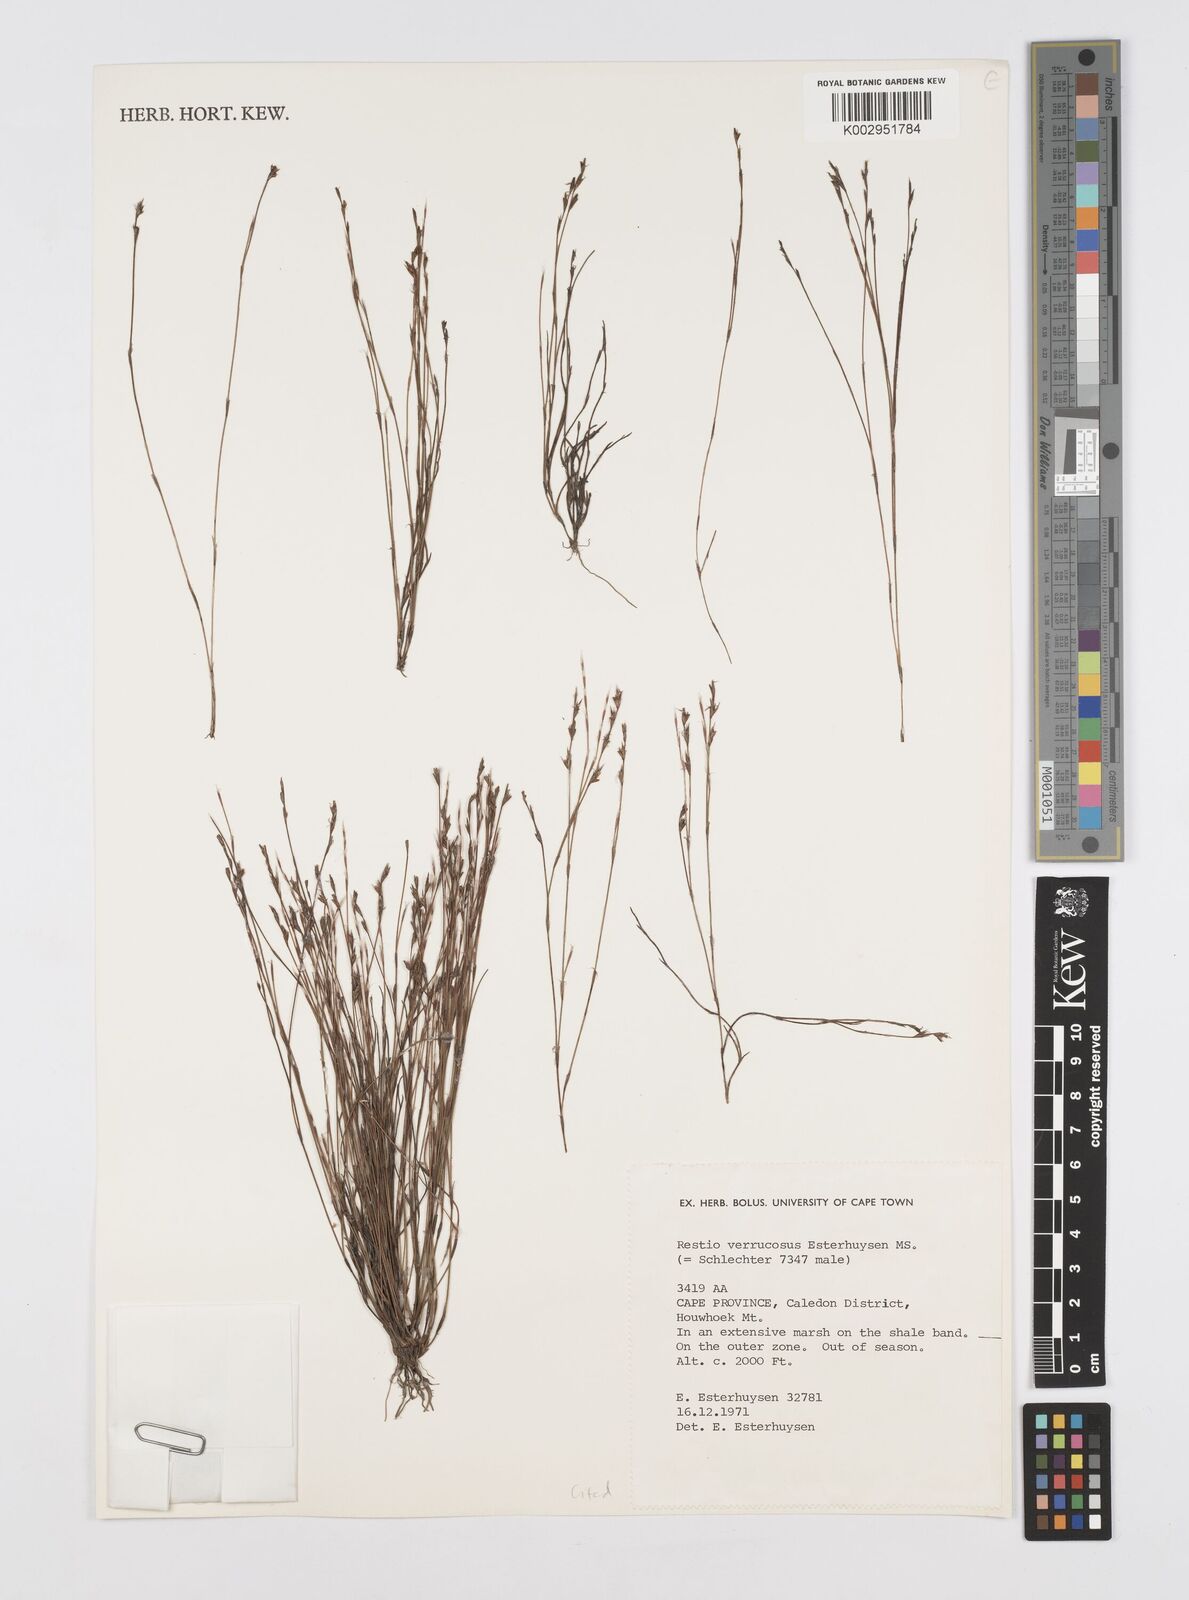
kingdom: Plantae
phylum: Tracheophyta
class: Liliopsida
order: Poales
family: Restionaceae
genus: Restio
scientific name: Restio verrucosus
